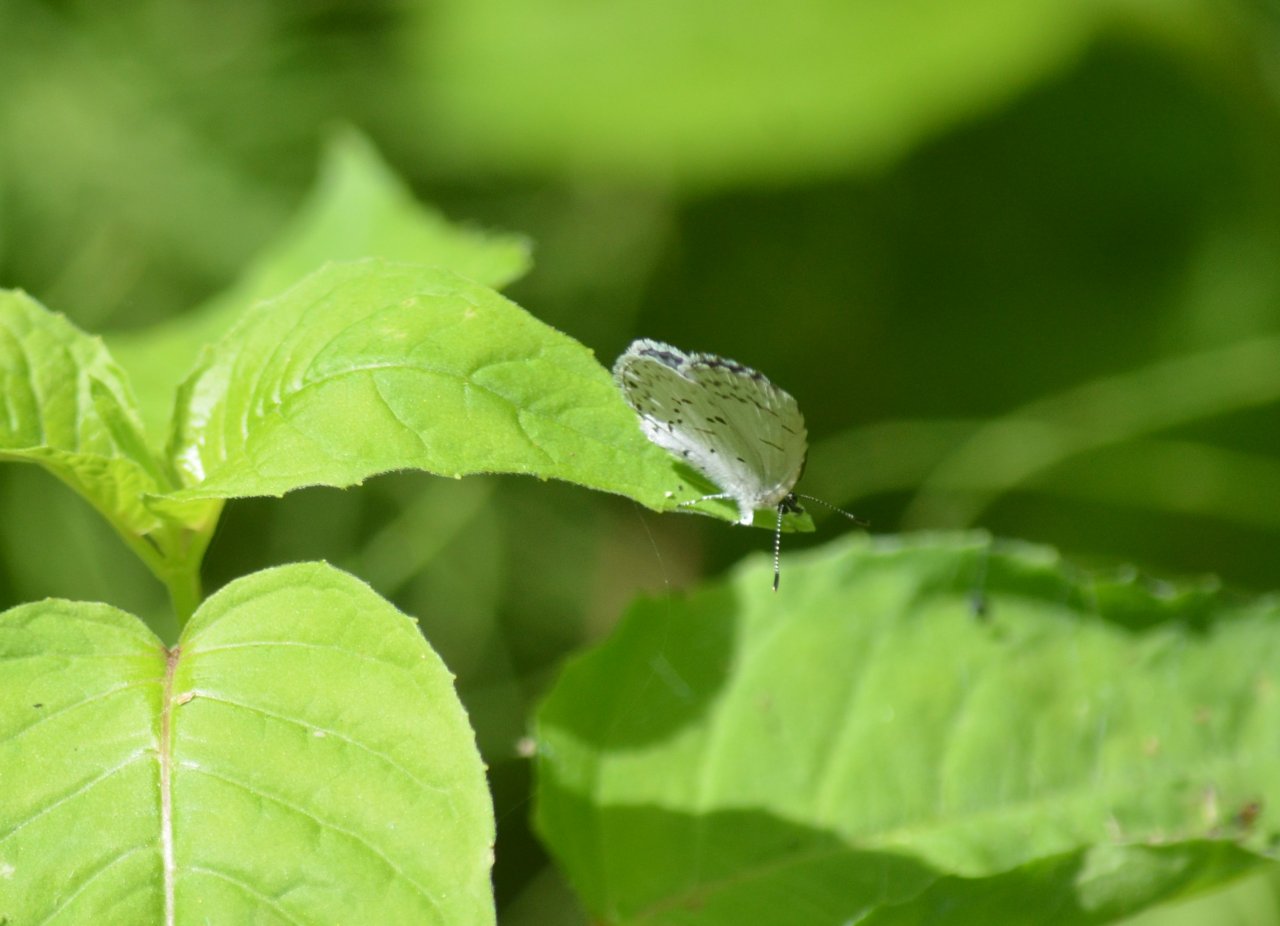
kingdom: Animalia
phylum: Arthropoda
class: Insecta
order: Lepidoptera
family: Lycaenidae
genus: Celastrina
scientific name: Celastrina
